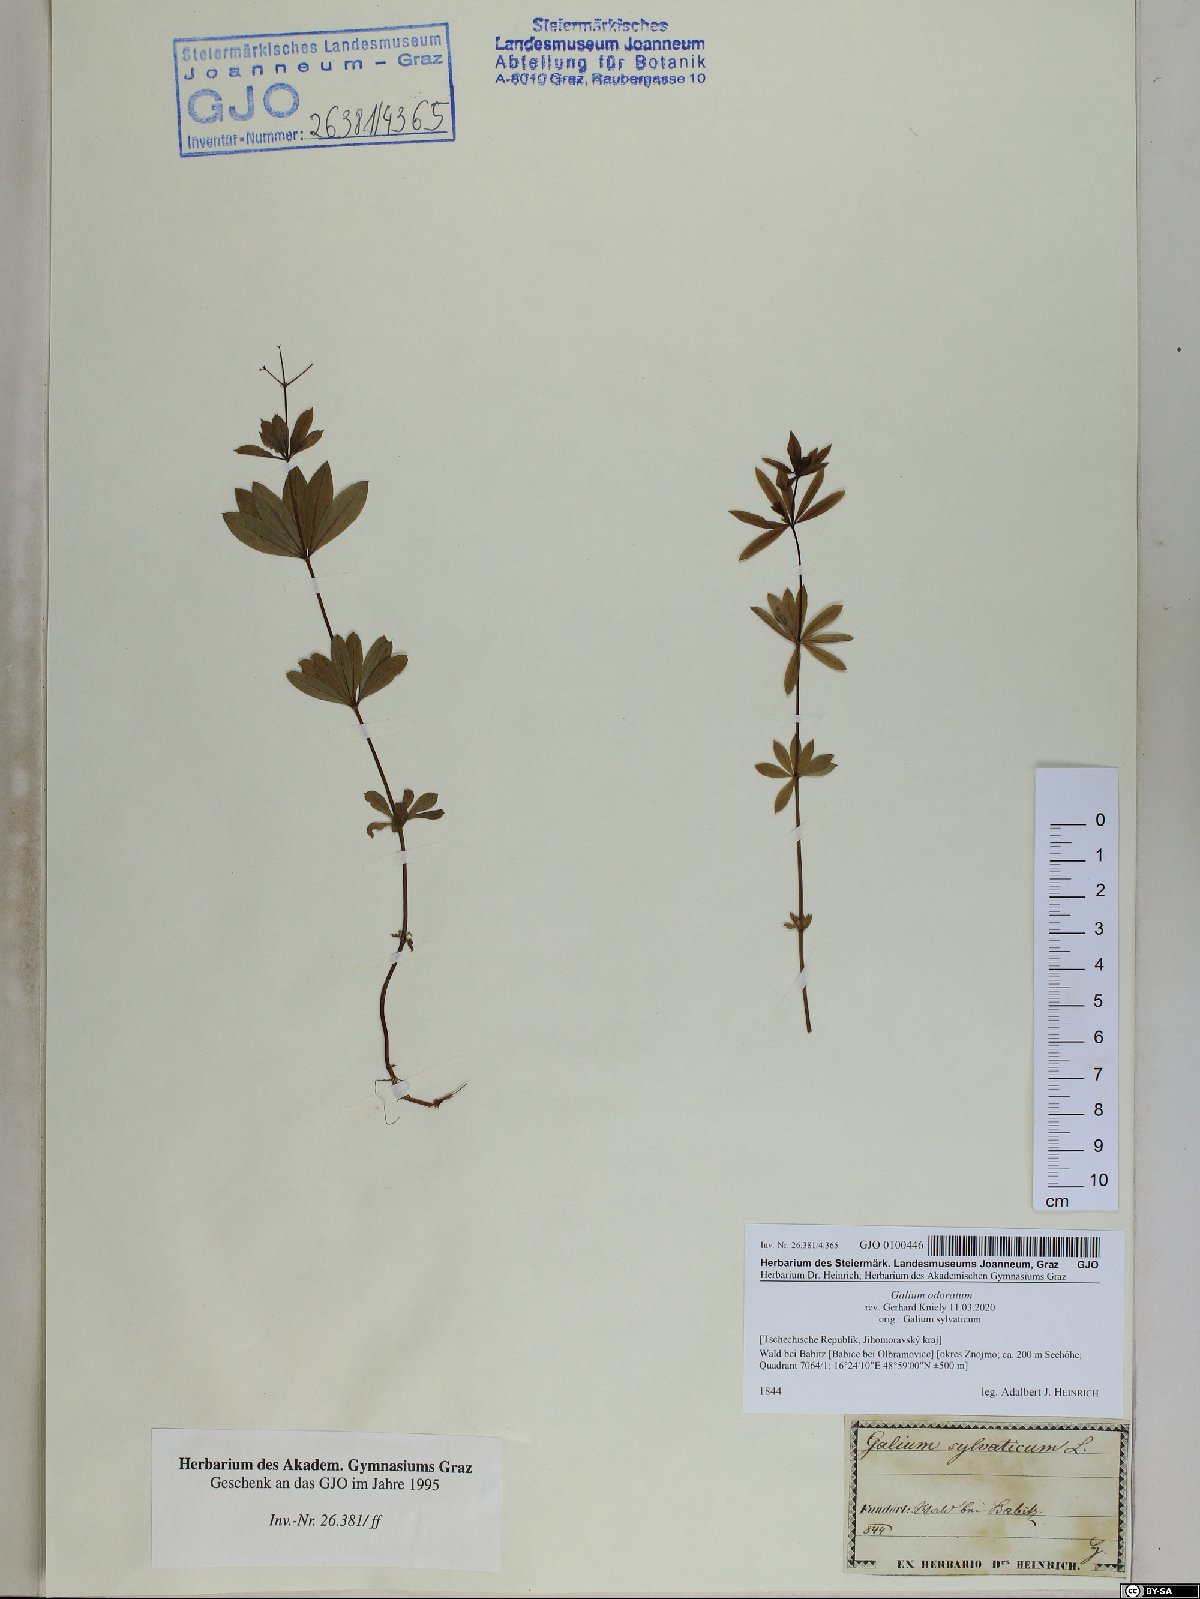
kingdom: Plantae
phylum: Tracheophyta
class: Magnoliopsida
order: Gentianales
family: Rubiaceae
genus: Galium
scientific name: Galium odoratum
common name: Sweet woodruff
